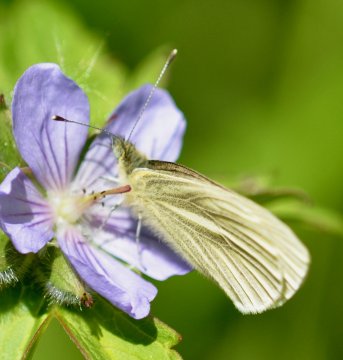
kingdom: Animalia
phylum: Arthropoda
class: Insecta
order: Lepidoptera
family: Pieridae
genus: Pieris
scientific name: Pieris angelika
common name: Arctic White
